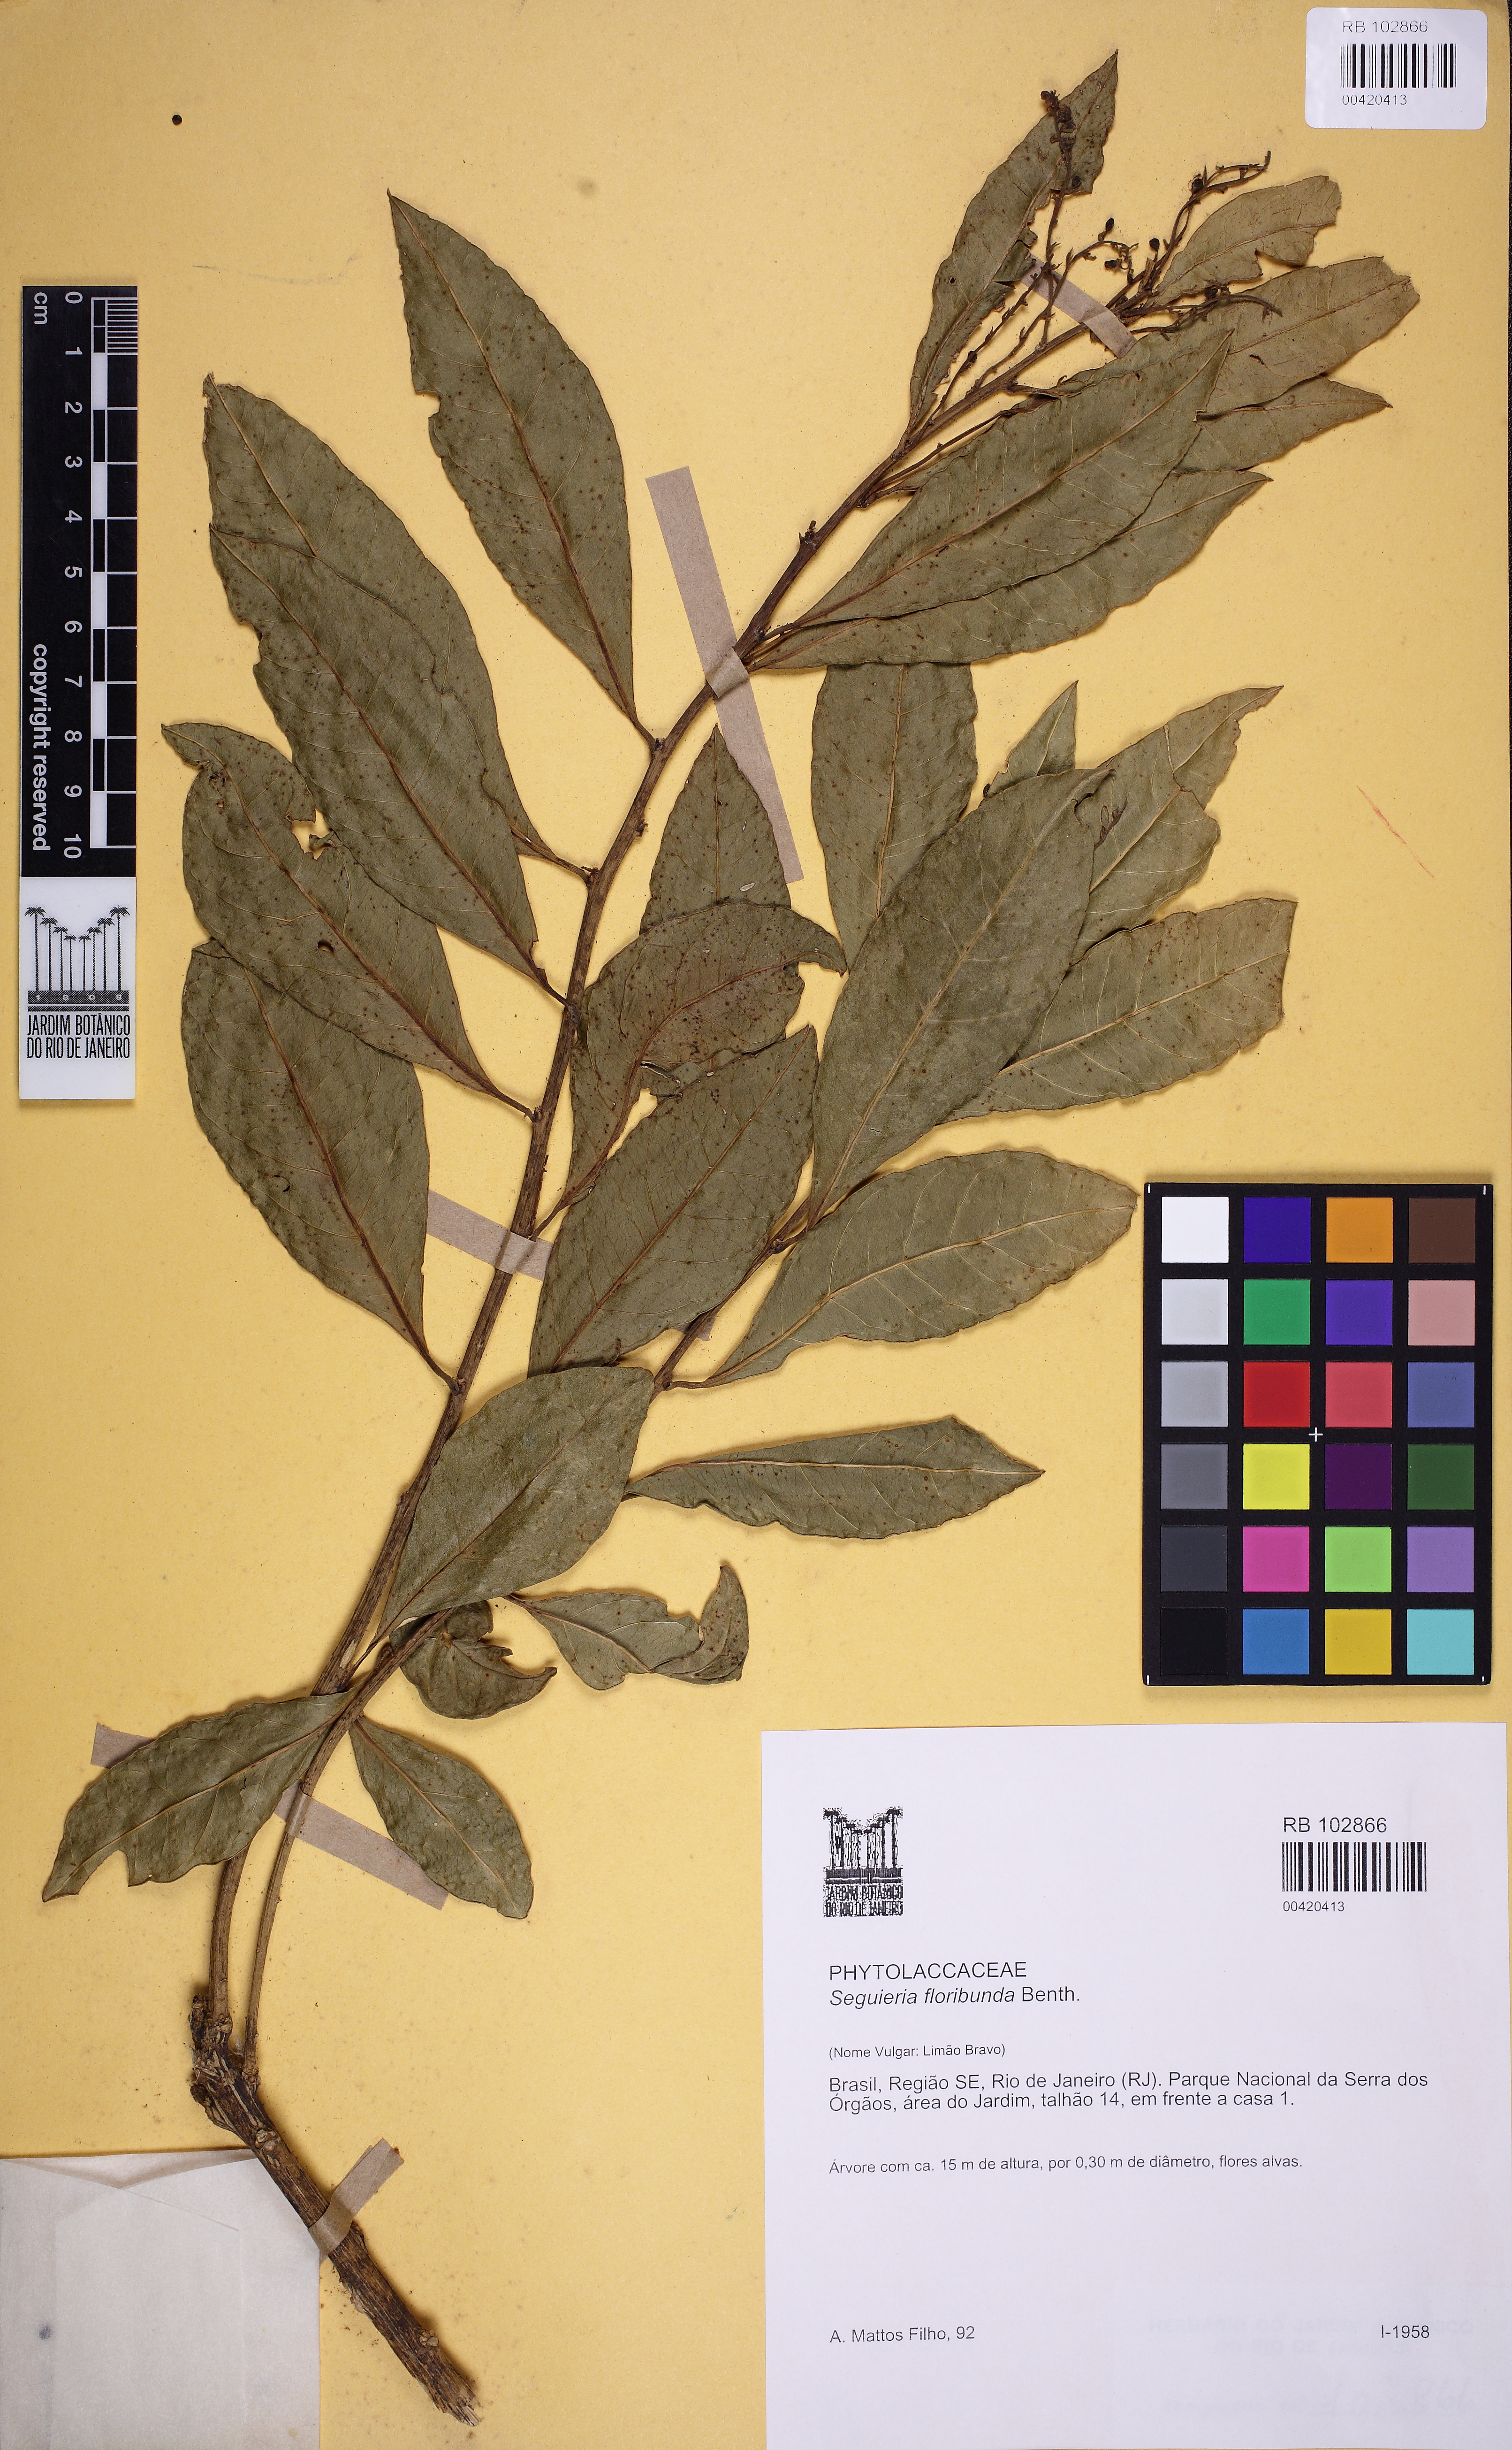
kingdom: Plantae
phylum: Tracheophyta
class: Magnoliopsida
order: Caryophyllales
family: Phytolaccaceae
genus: Seguieria
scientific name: Seguieria americana
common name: American seguieria
